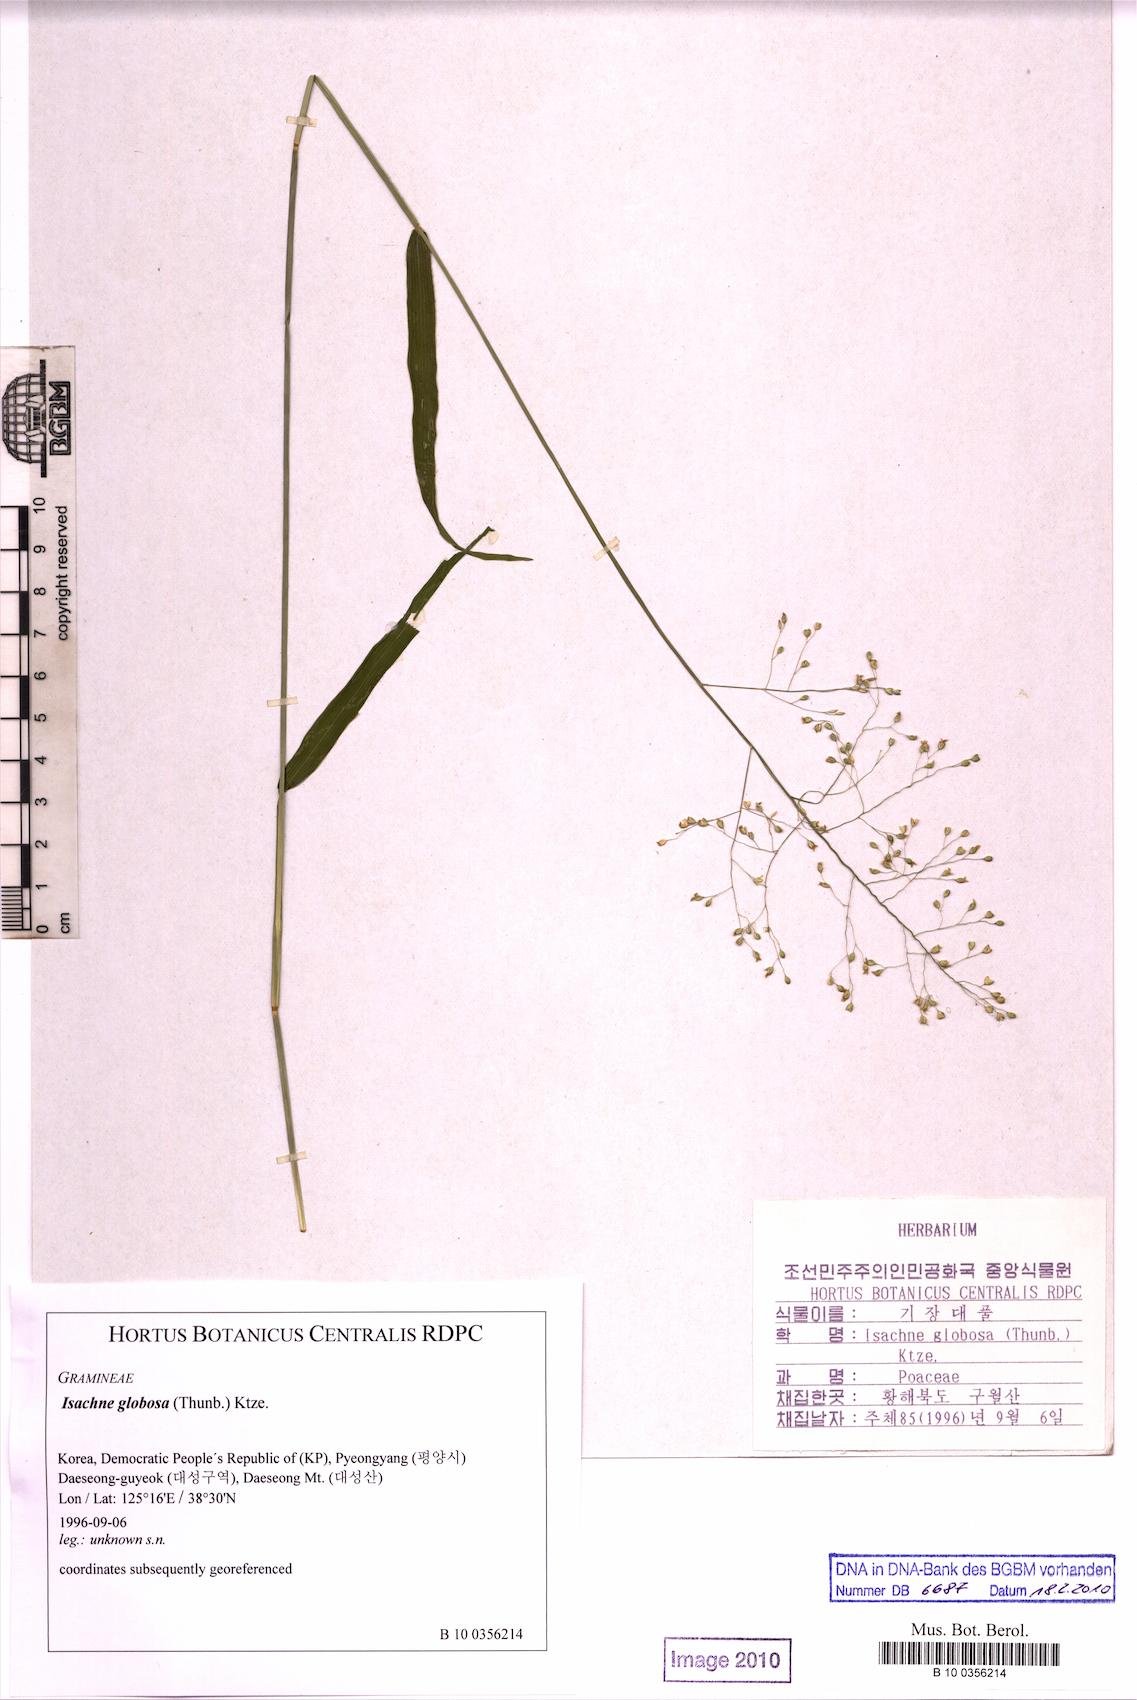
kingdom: Plantae
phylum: Tracheophyta
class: Liliopsida
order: Poales
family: Poaceae
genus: Isachne
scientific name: Isachne globosa
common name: Swamp millet
